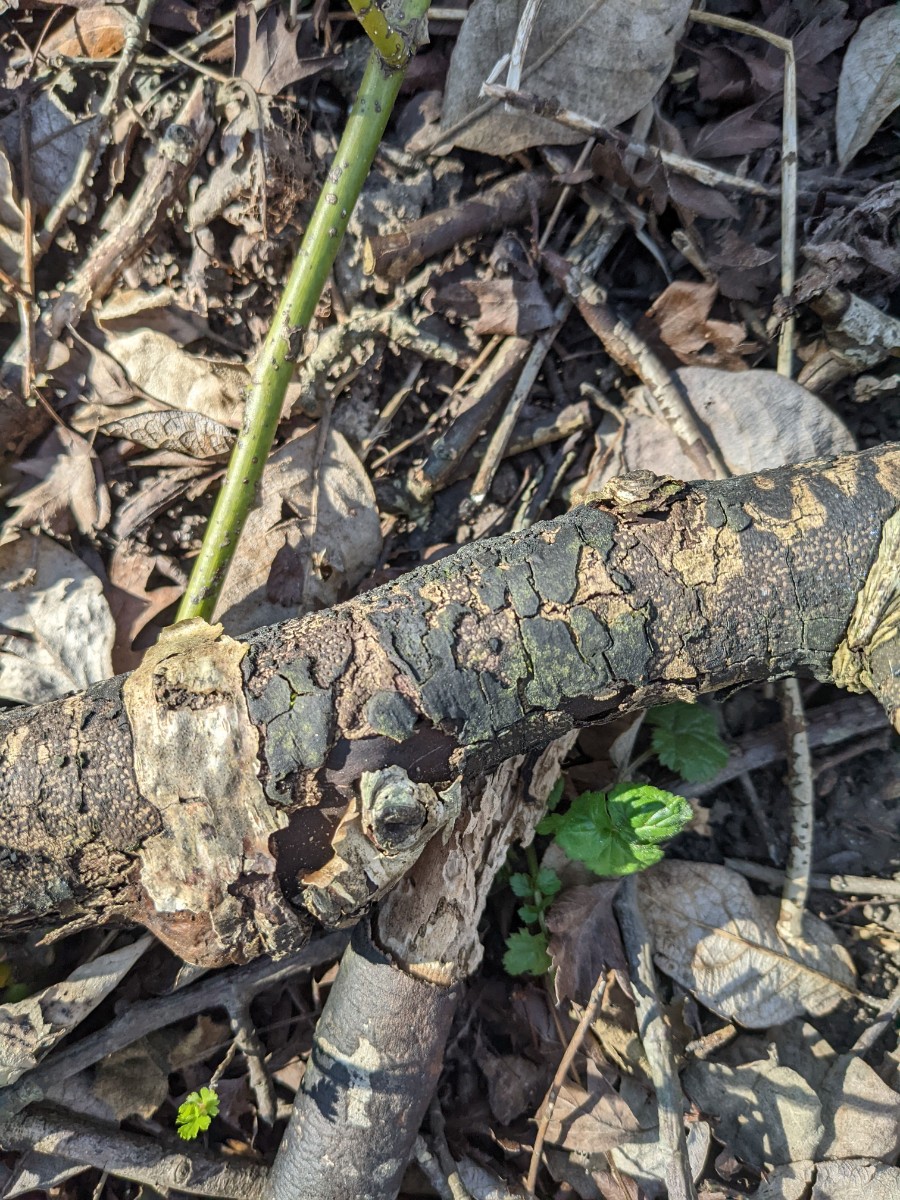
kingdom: Fungi
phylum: Ascomycota
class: Sordariomycetes
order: Xylariales
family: Diatrypaceae
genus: Diatrype
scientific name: Diatrype stigma
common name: udbredt kulskorpe
